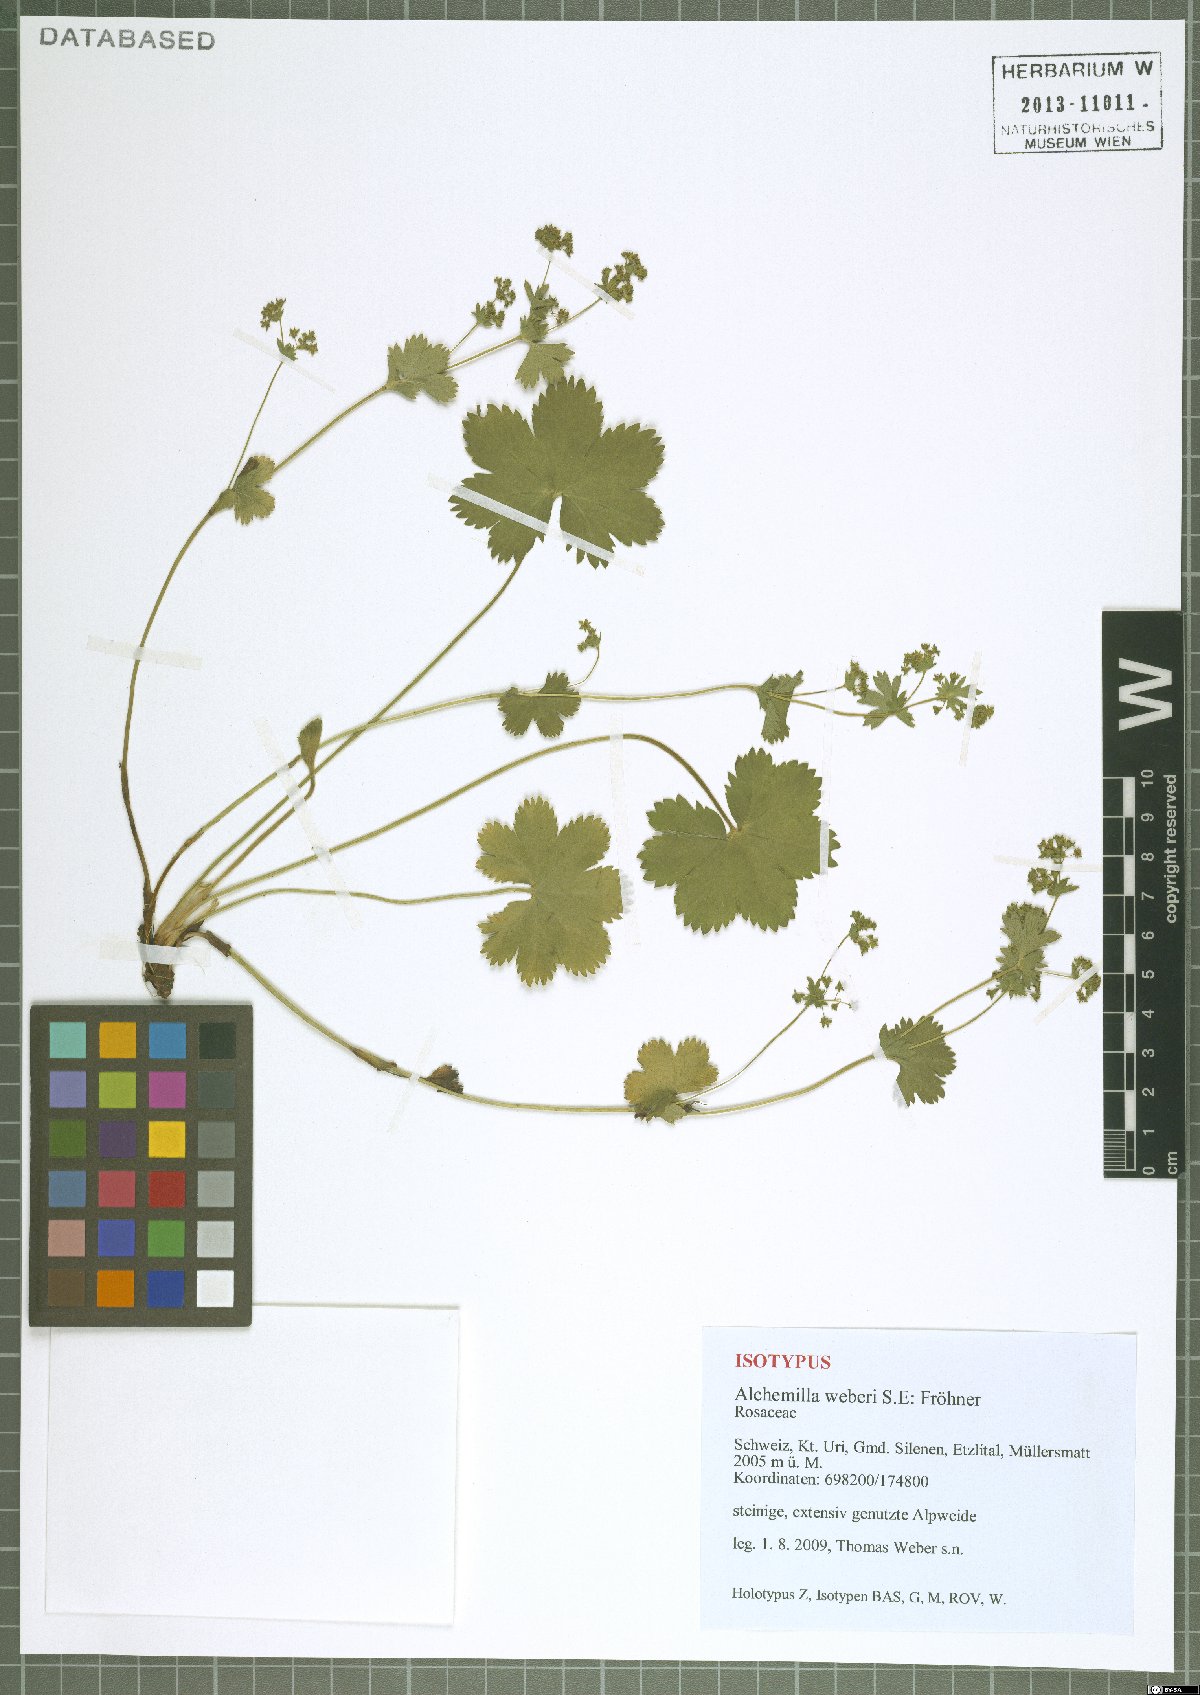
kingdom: Plantae
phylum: Tracheophyta
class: Magnoliopsida
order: Rosales
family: Rosaceae
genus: Alchemilla
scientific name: Alchemilla weberi
